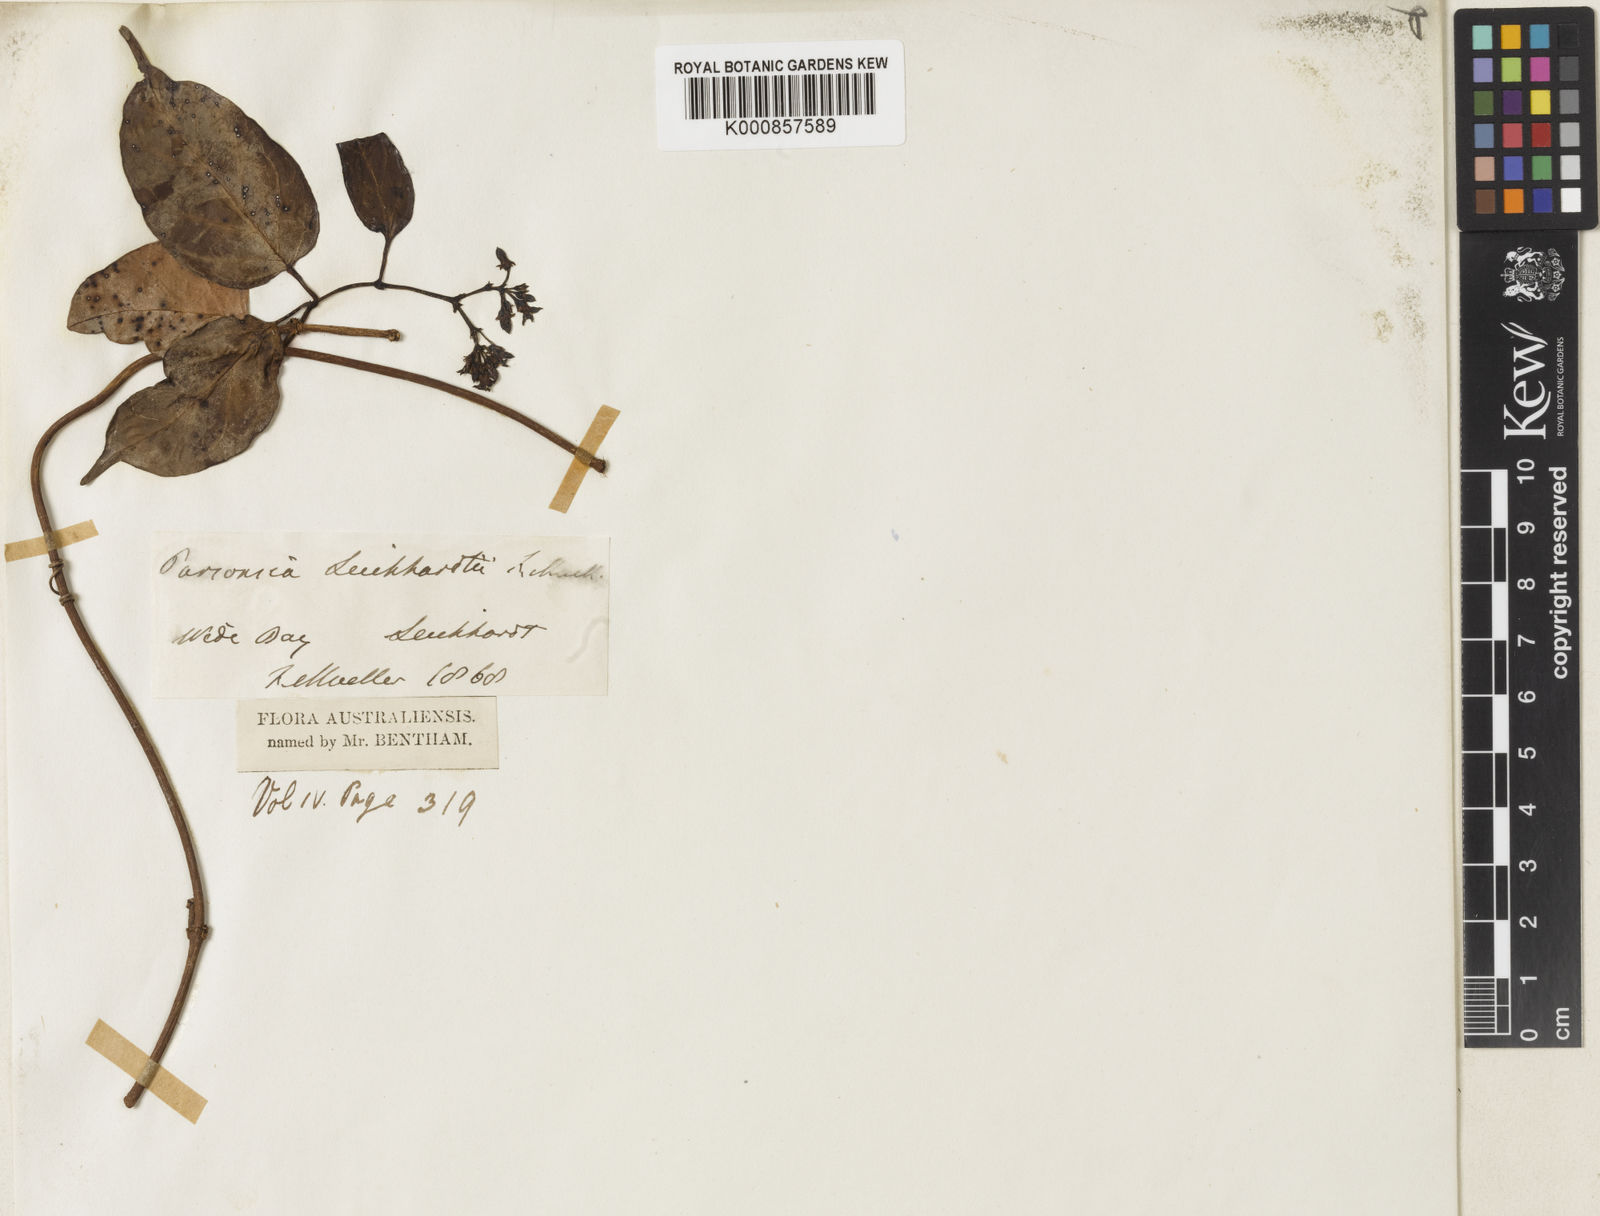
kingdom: Plantae
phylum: Tracheophyta
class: Magnoliopsida
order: Gentianales
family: Apocynaceae
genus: Parsonsia
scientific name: Parsonsia leichhardtii
